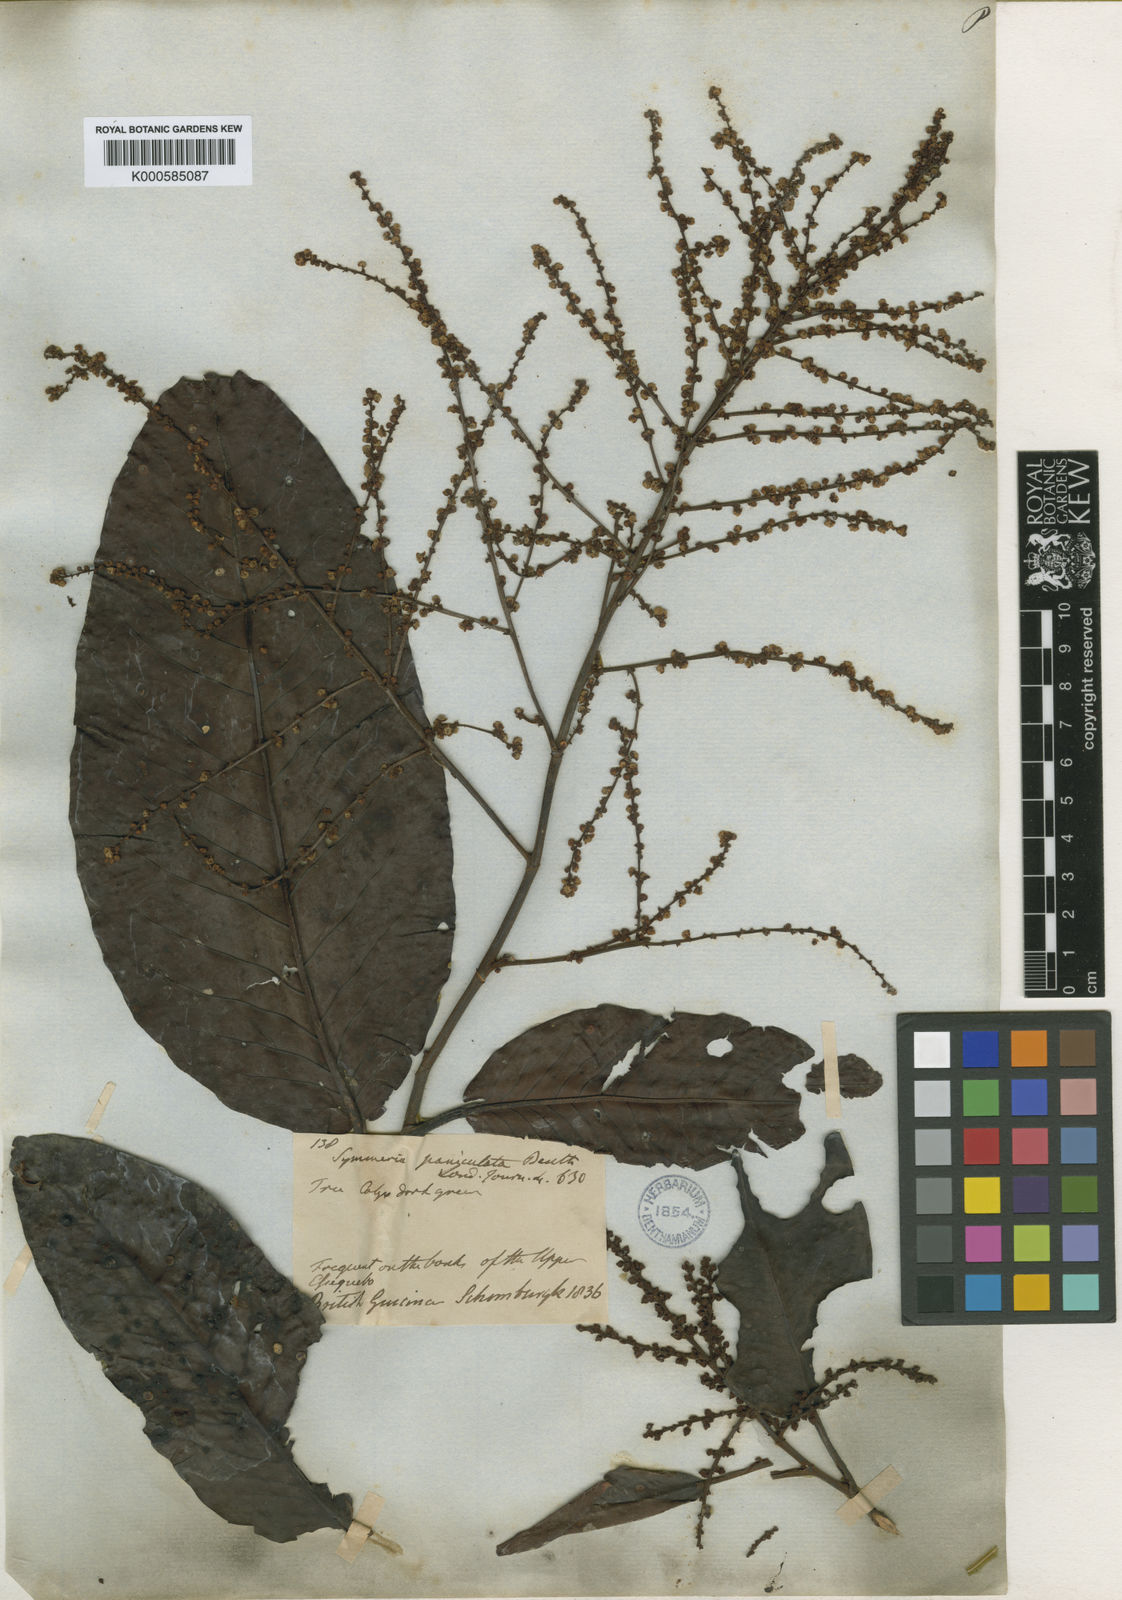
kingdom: Plantae
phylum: Tracheophyta
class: Magnoliopsida
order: Caryophyllales
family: Polygonaceae
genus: Symmeria
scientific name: Symmeria paniculata
